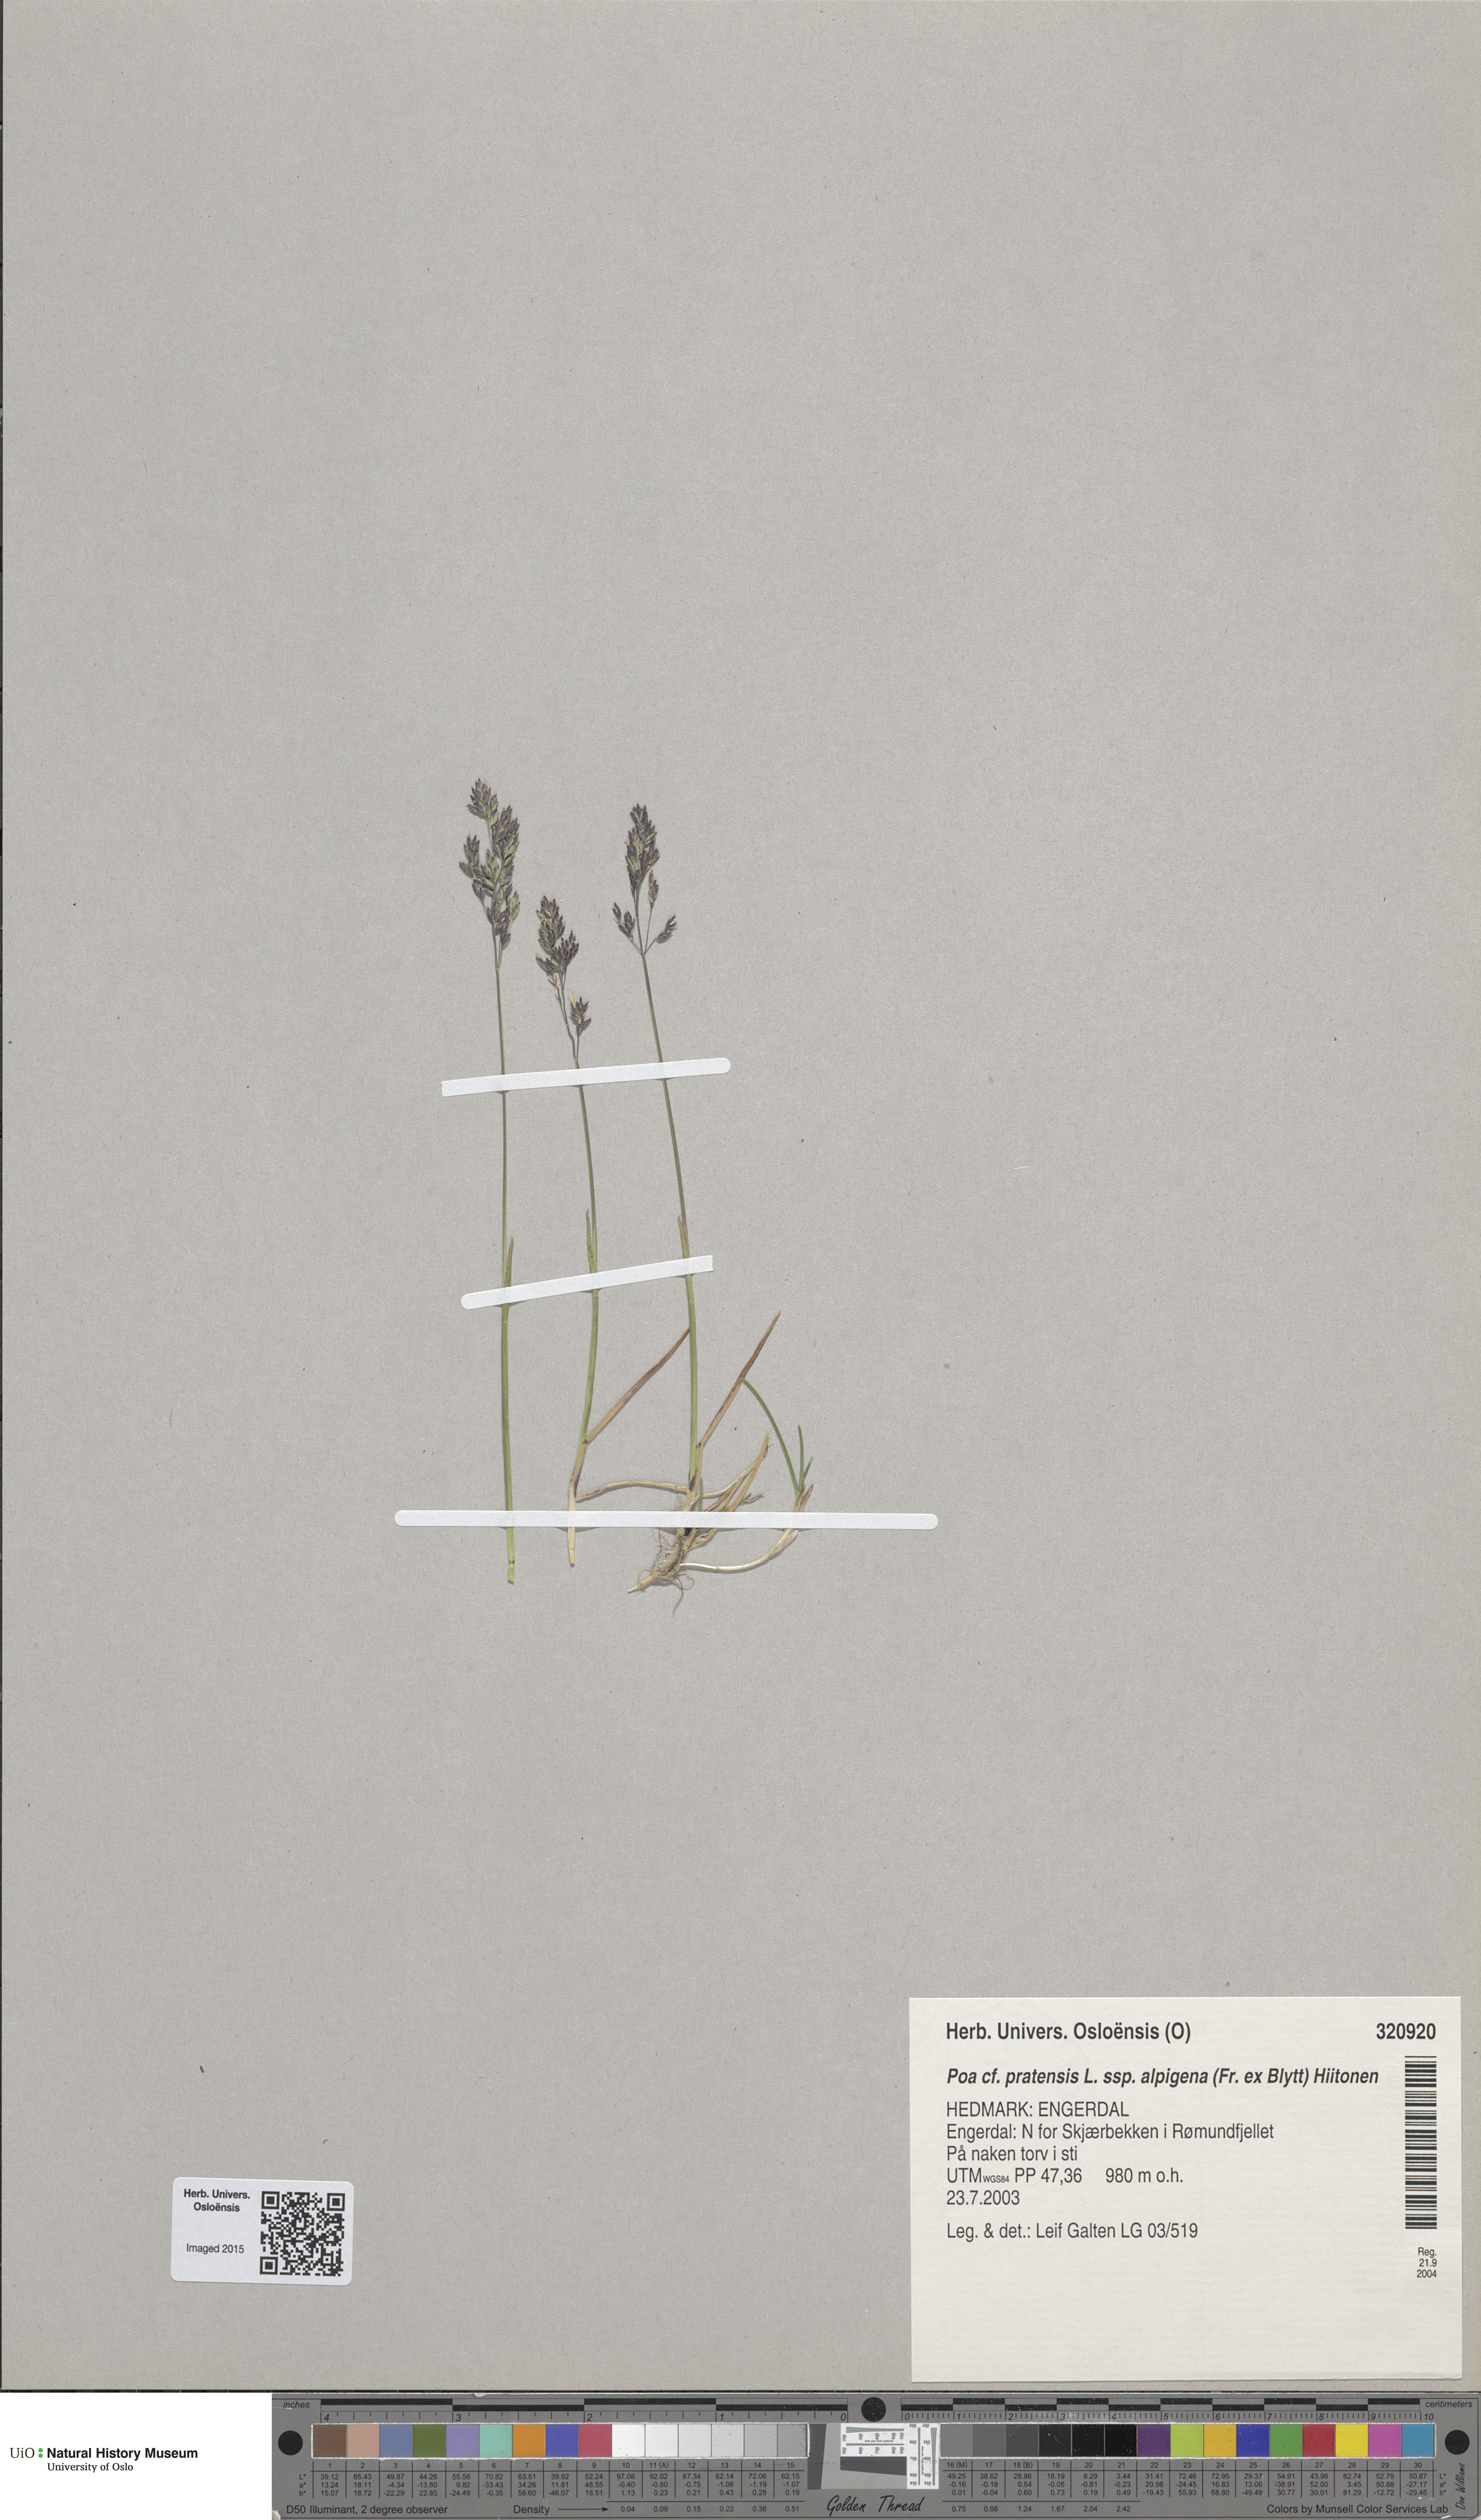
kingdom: Plantae
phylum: Tracheophyta
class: Liliopsida
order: Poales
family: Poaceae
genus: Poa
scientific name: Poa alpigena
